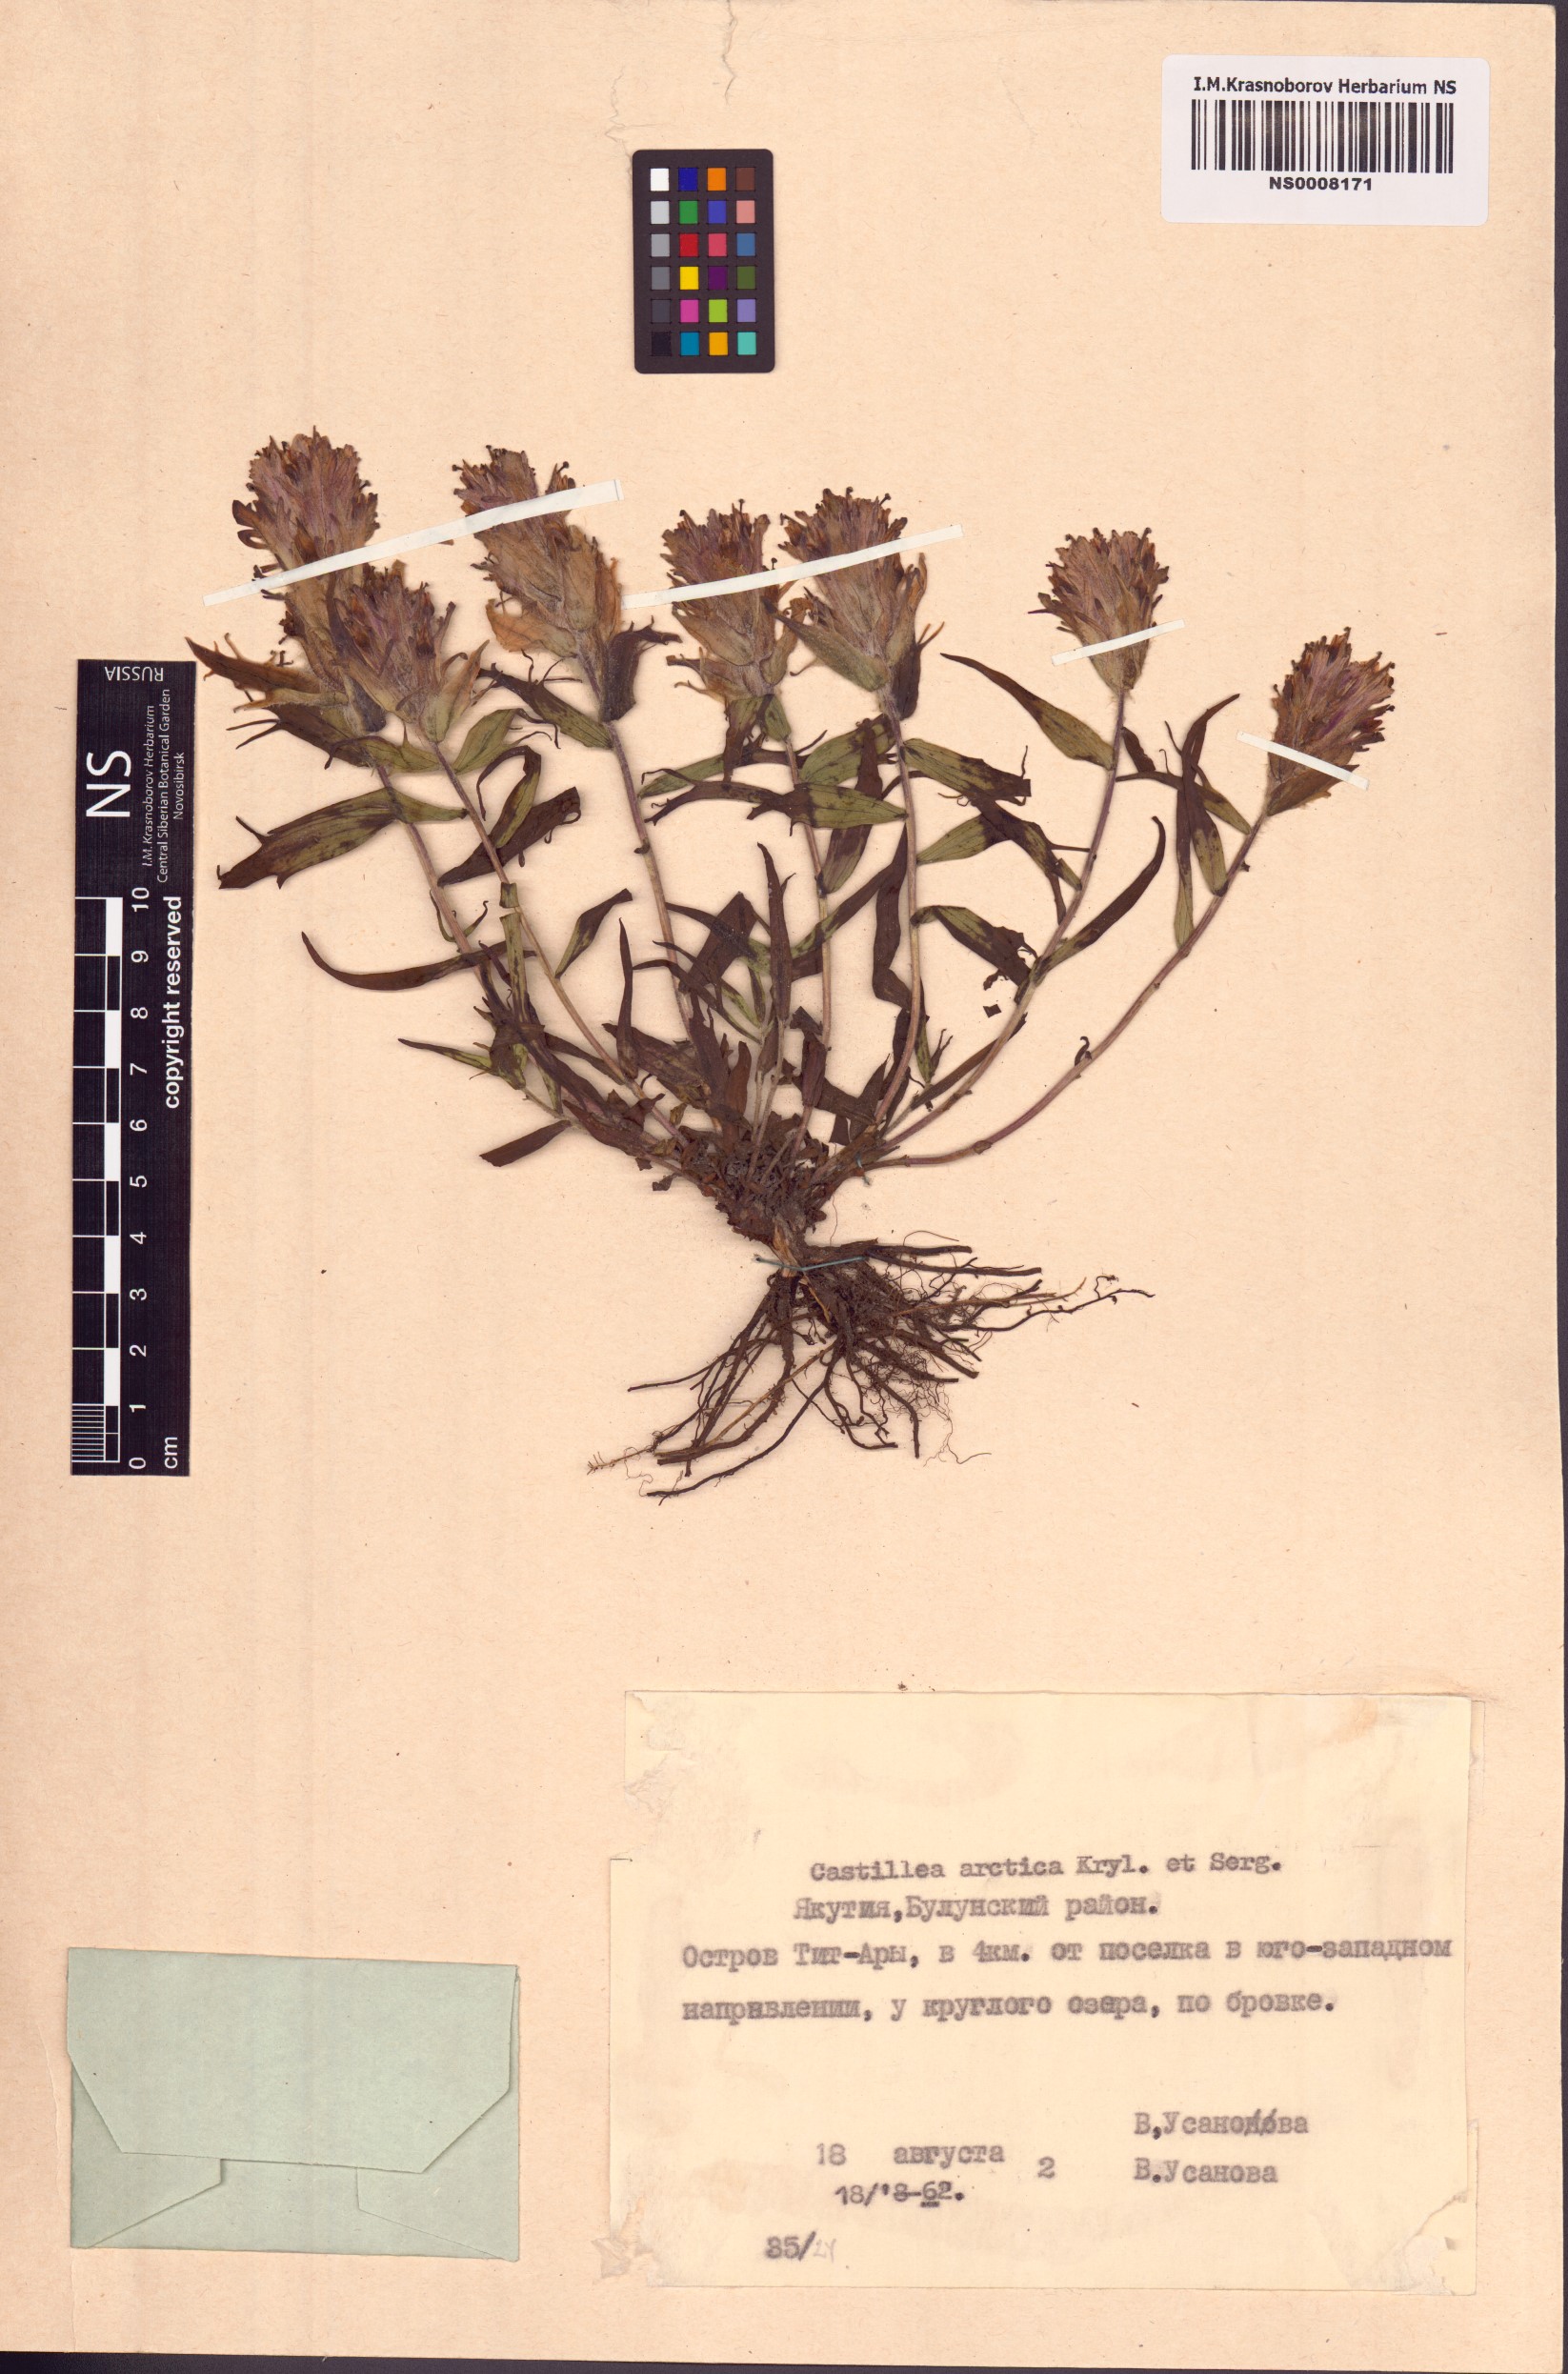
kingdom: Plantae
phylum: Tracheophyta
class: Magnoliopsida
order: Lamiales
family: Orobanchaceae
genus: Castilleja
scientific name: Castilleja arctica
